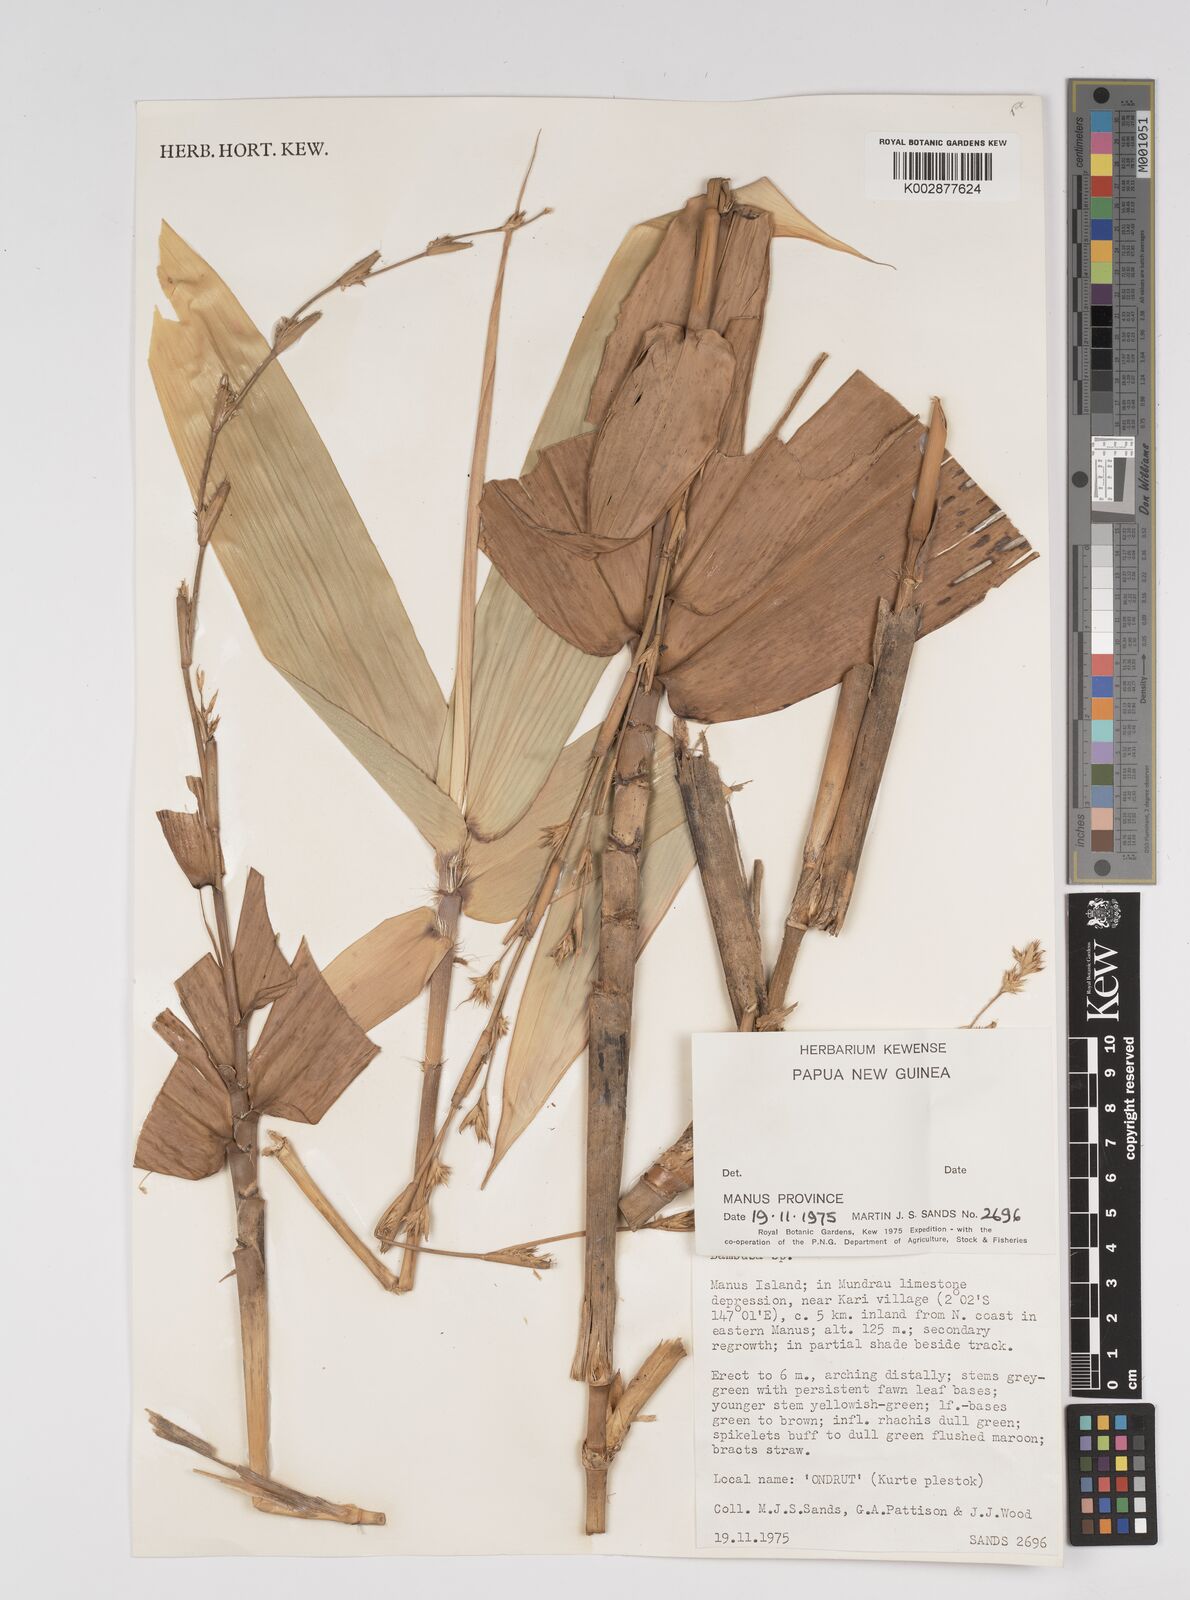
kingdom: Plantae
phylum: Tracheophyta
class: Liliopsida
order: Poales
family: Poaceae
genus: Dendrocalamus
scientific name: Dendrocalamus strictus
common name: Male bamboo
